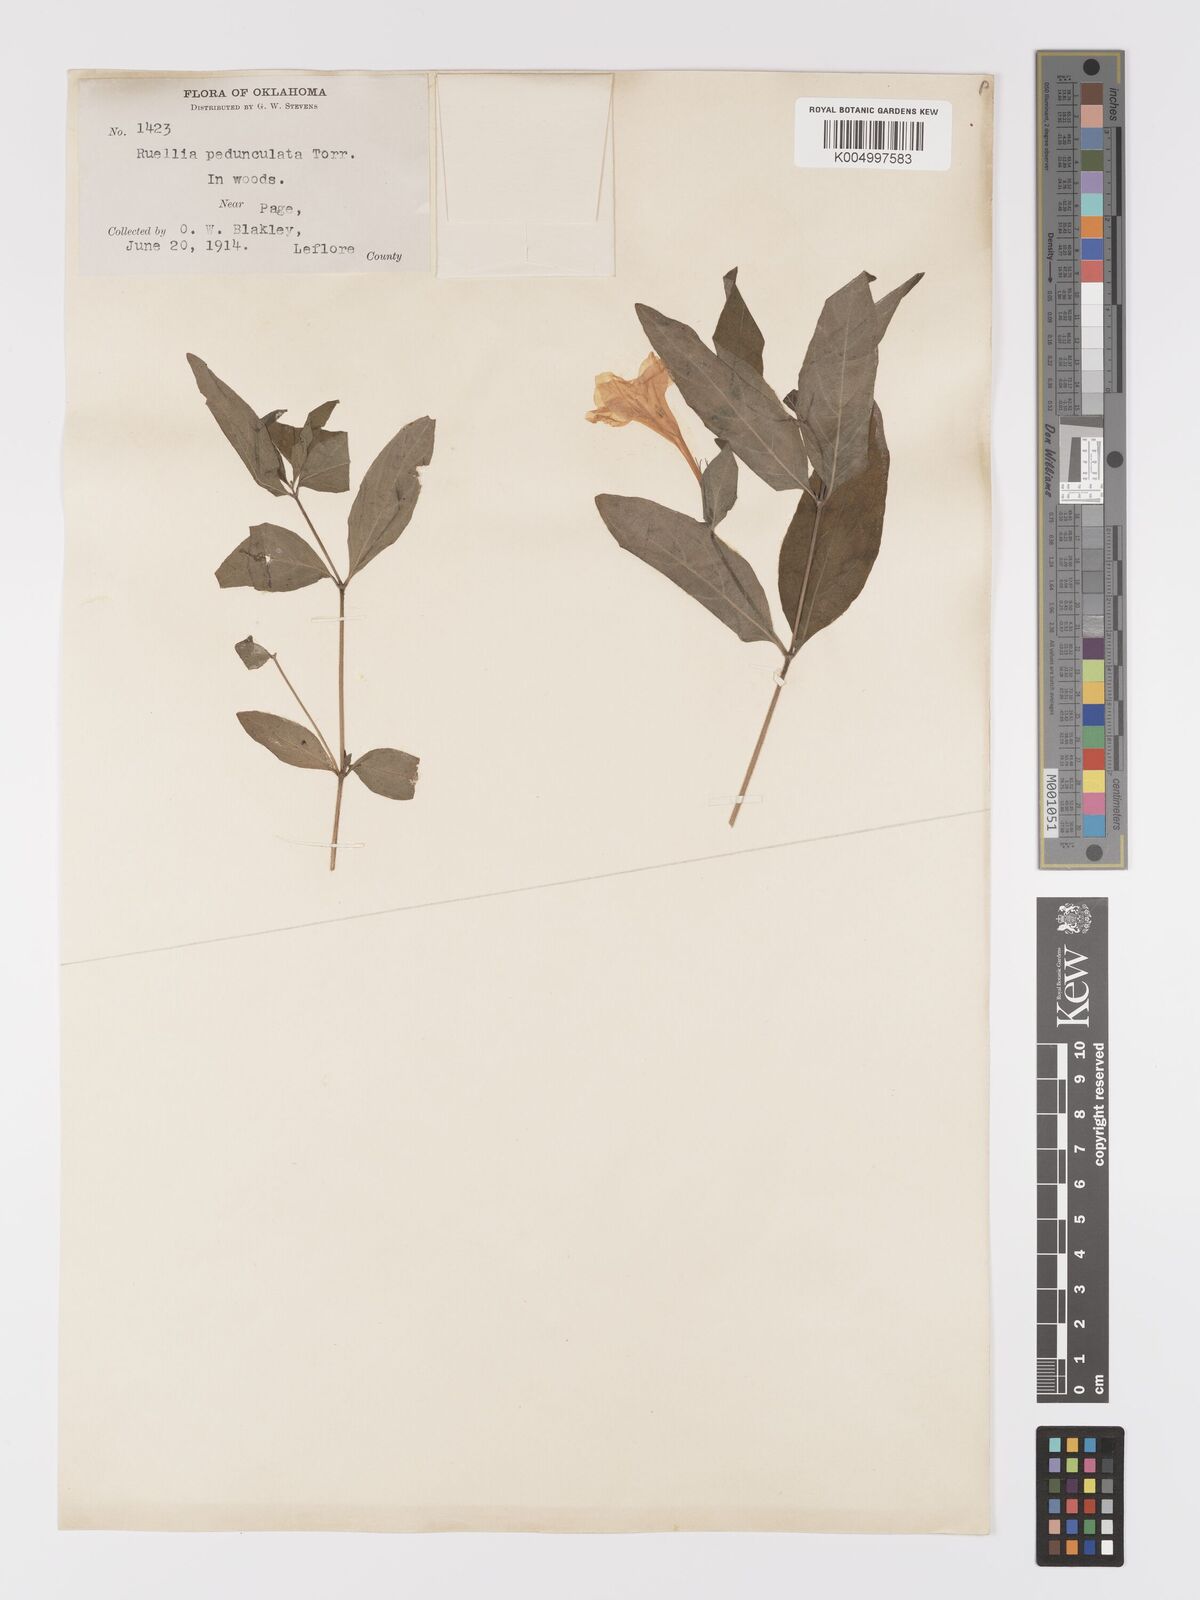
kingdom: Plantae
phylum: Tracheophyta
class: Magnoliopsida
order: Lamiales
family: Acanthaceae
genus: Ruellia
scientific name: Ruellia pedunculata
